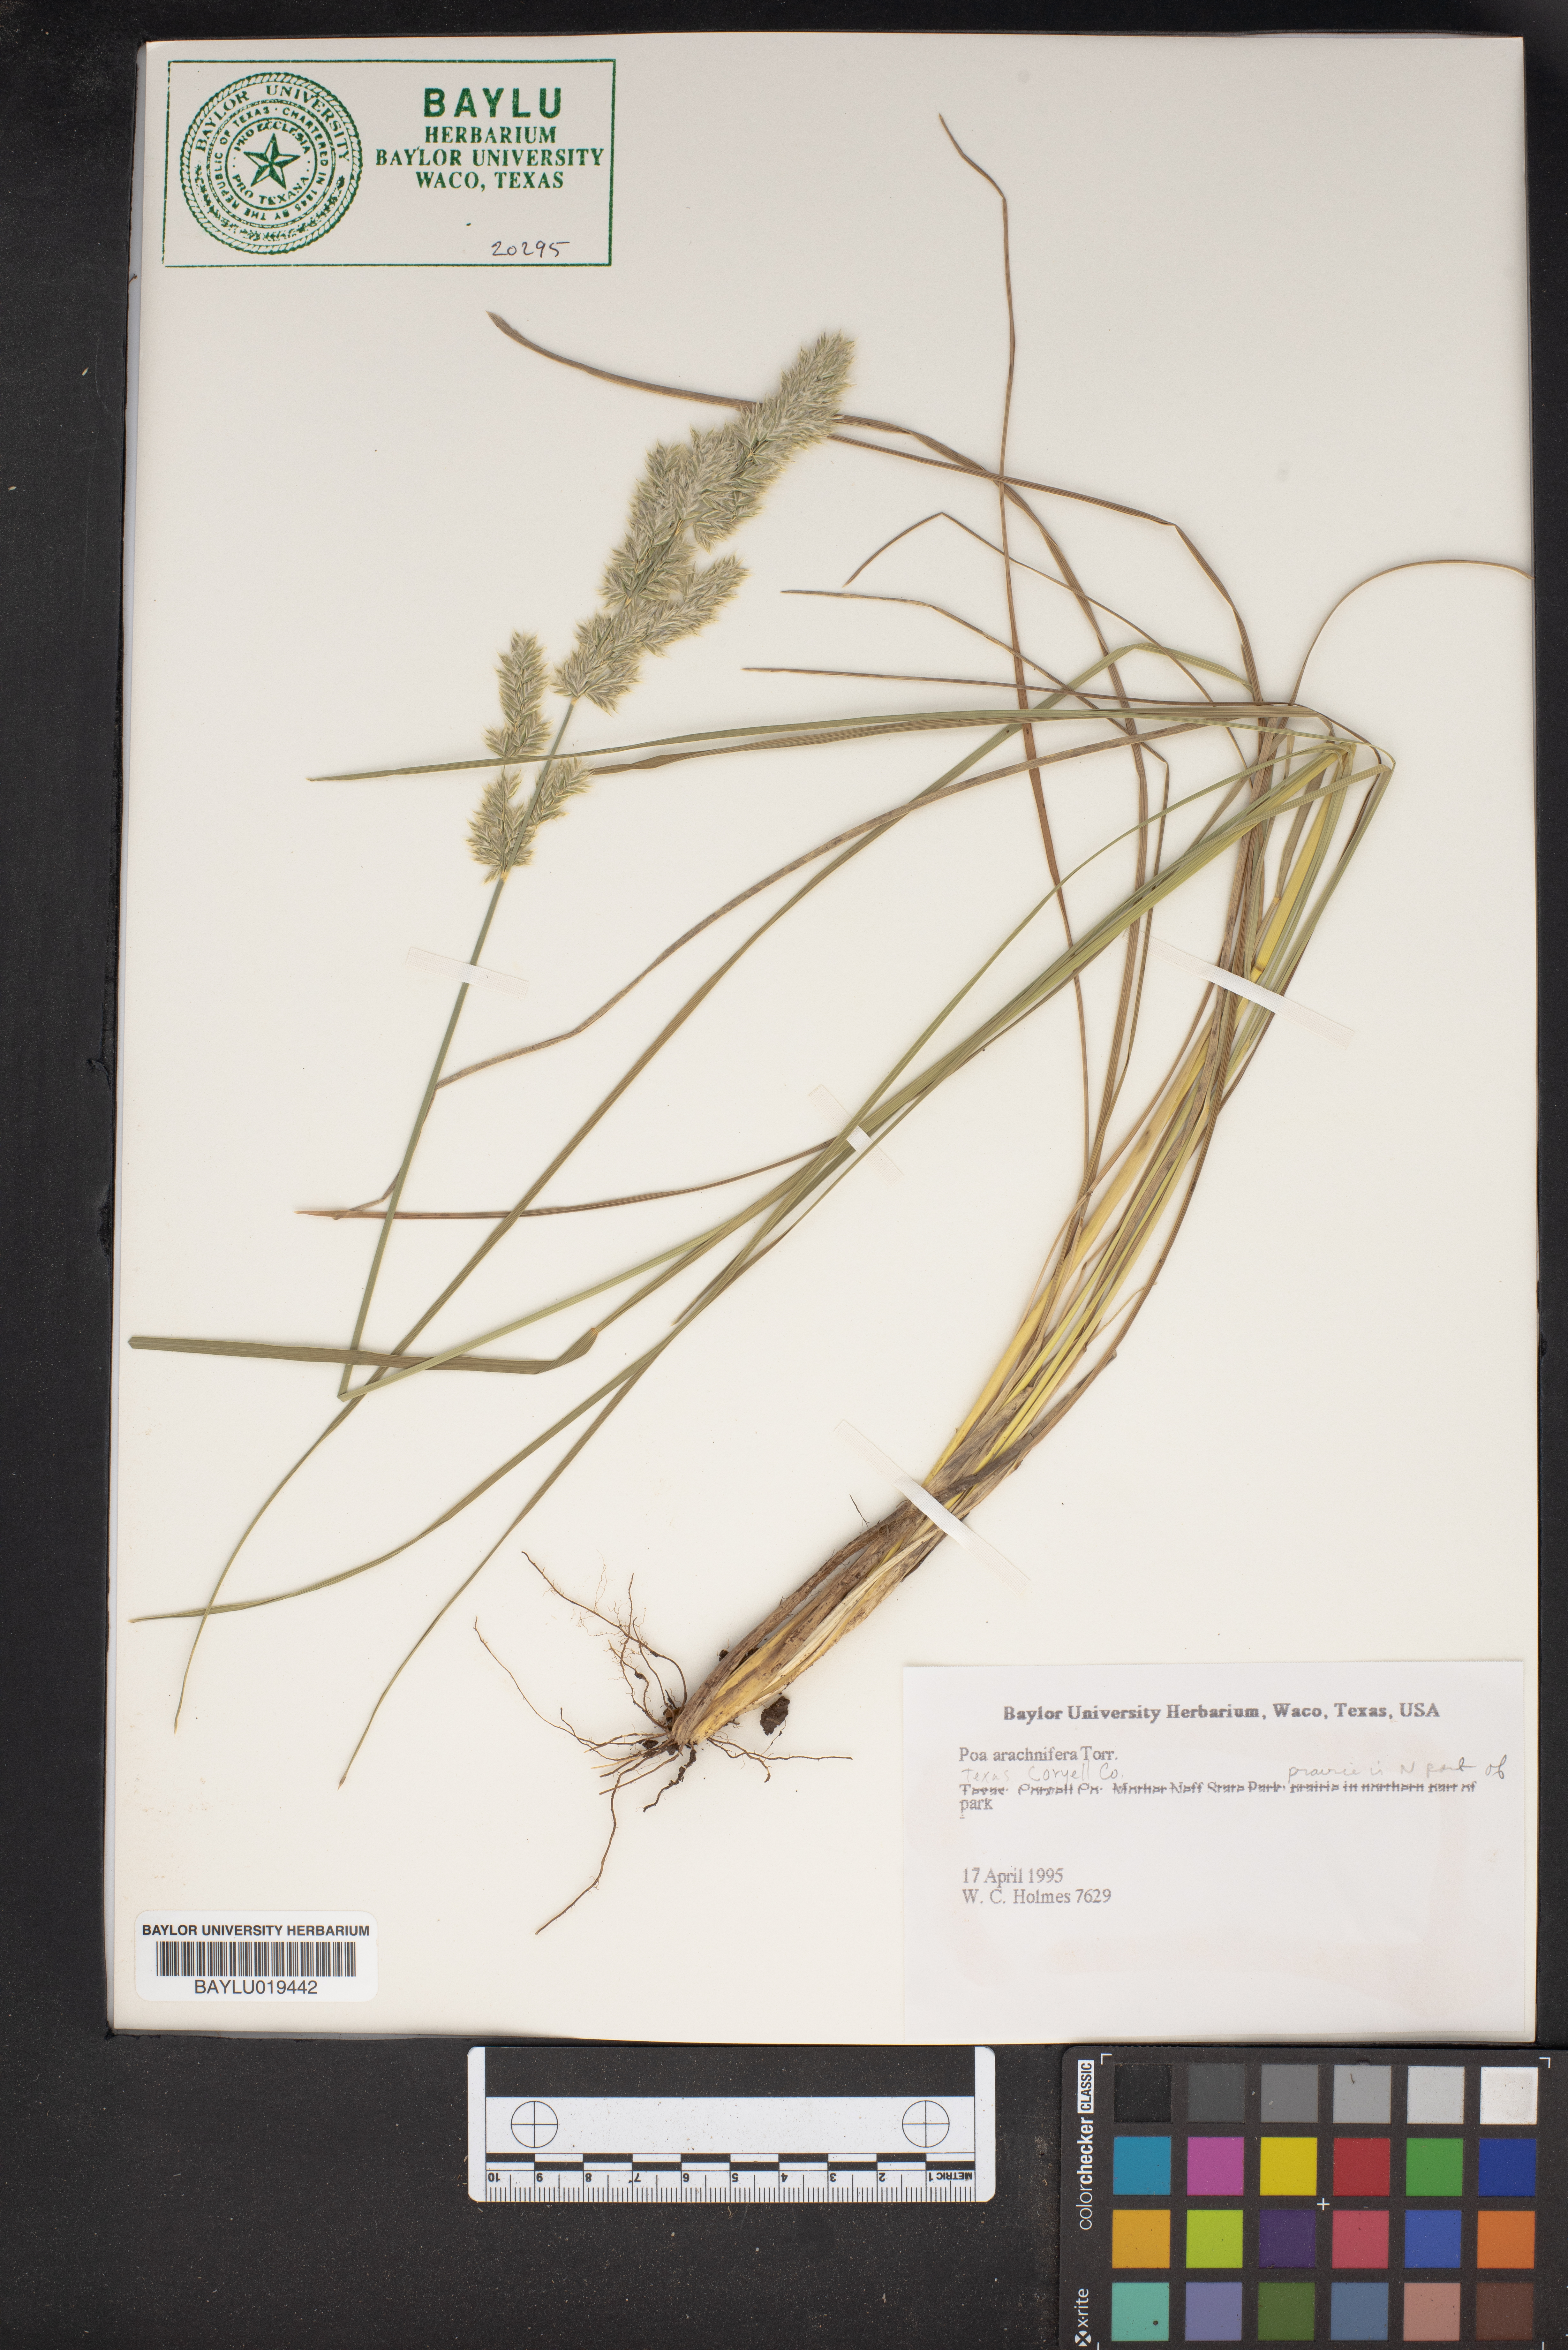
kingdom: Plantae
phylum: Tracheophyta
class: Liliopsida
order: Poales
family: Poaceae
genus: Poa
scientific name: Poa arachnifera
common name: Texas bluegrass
